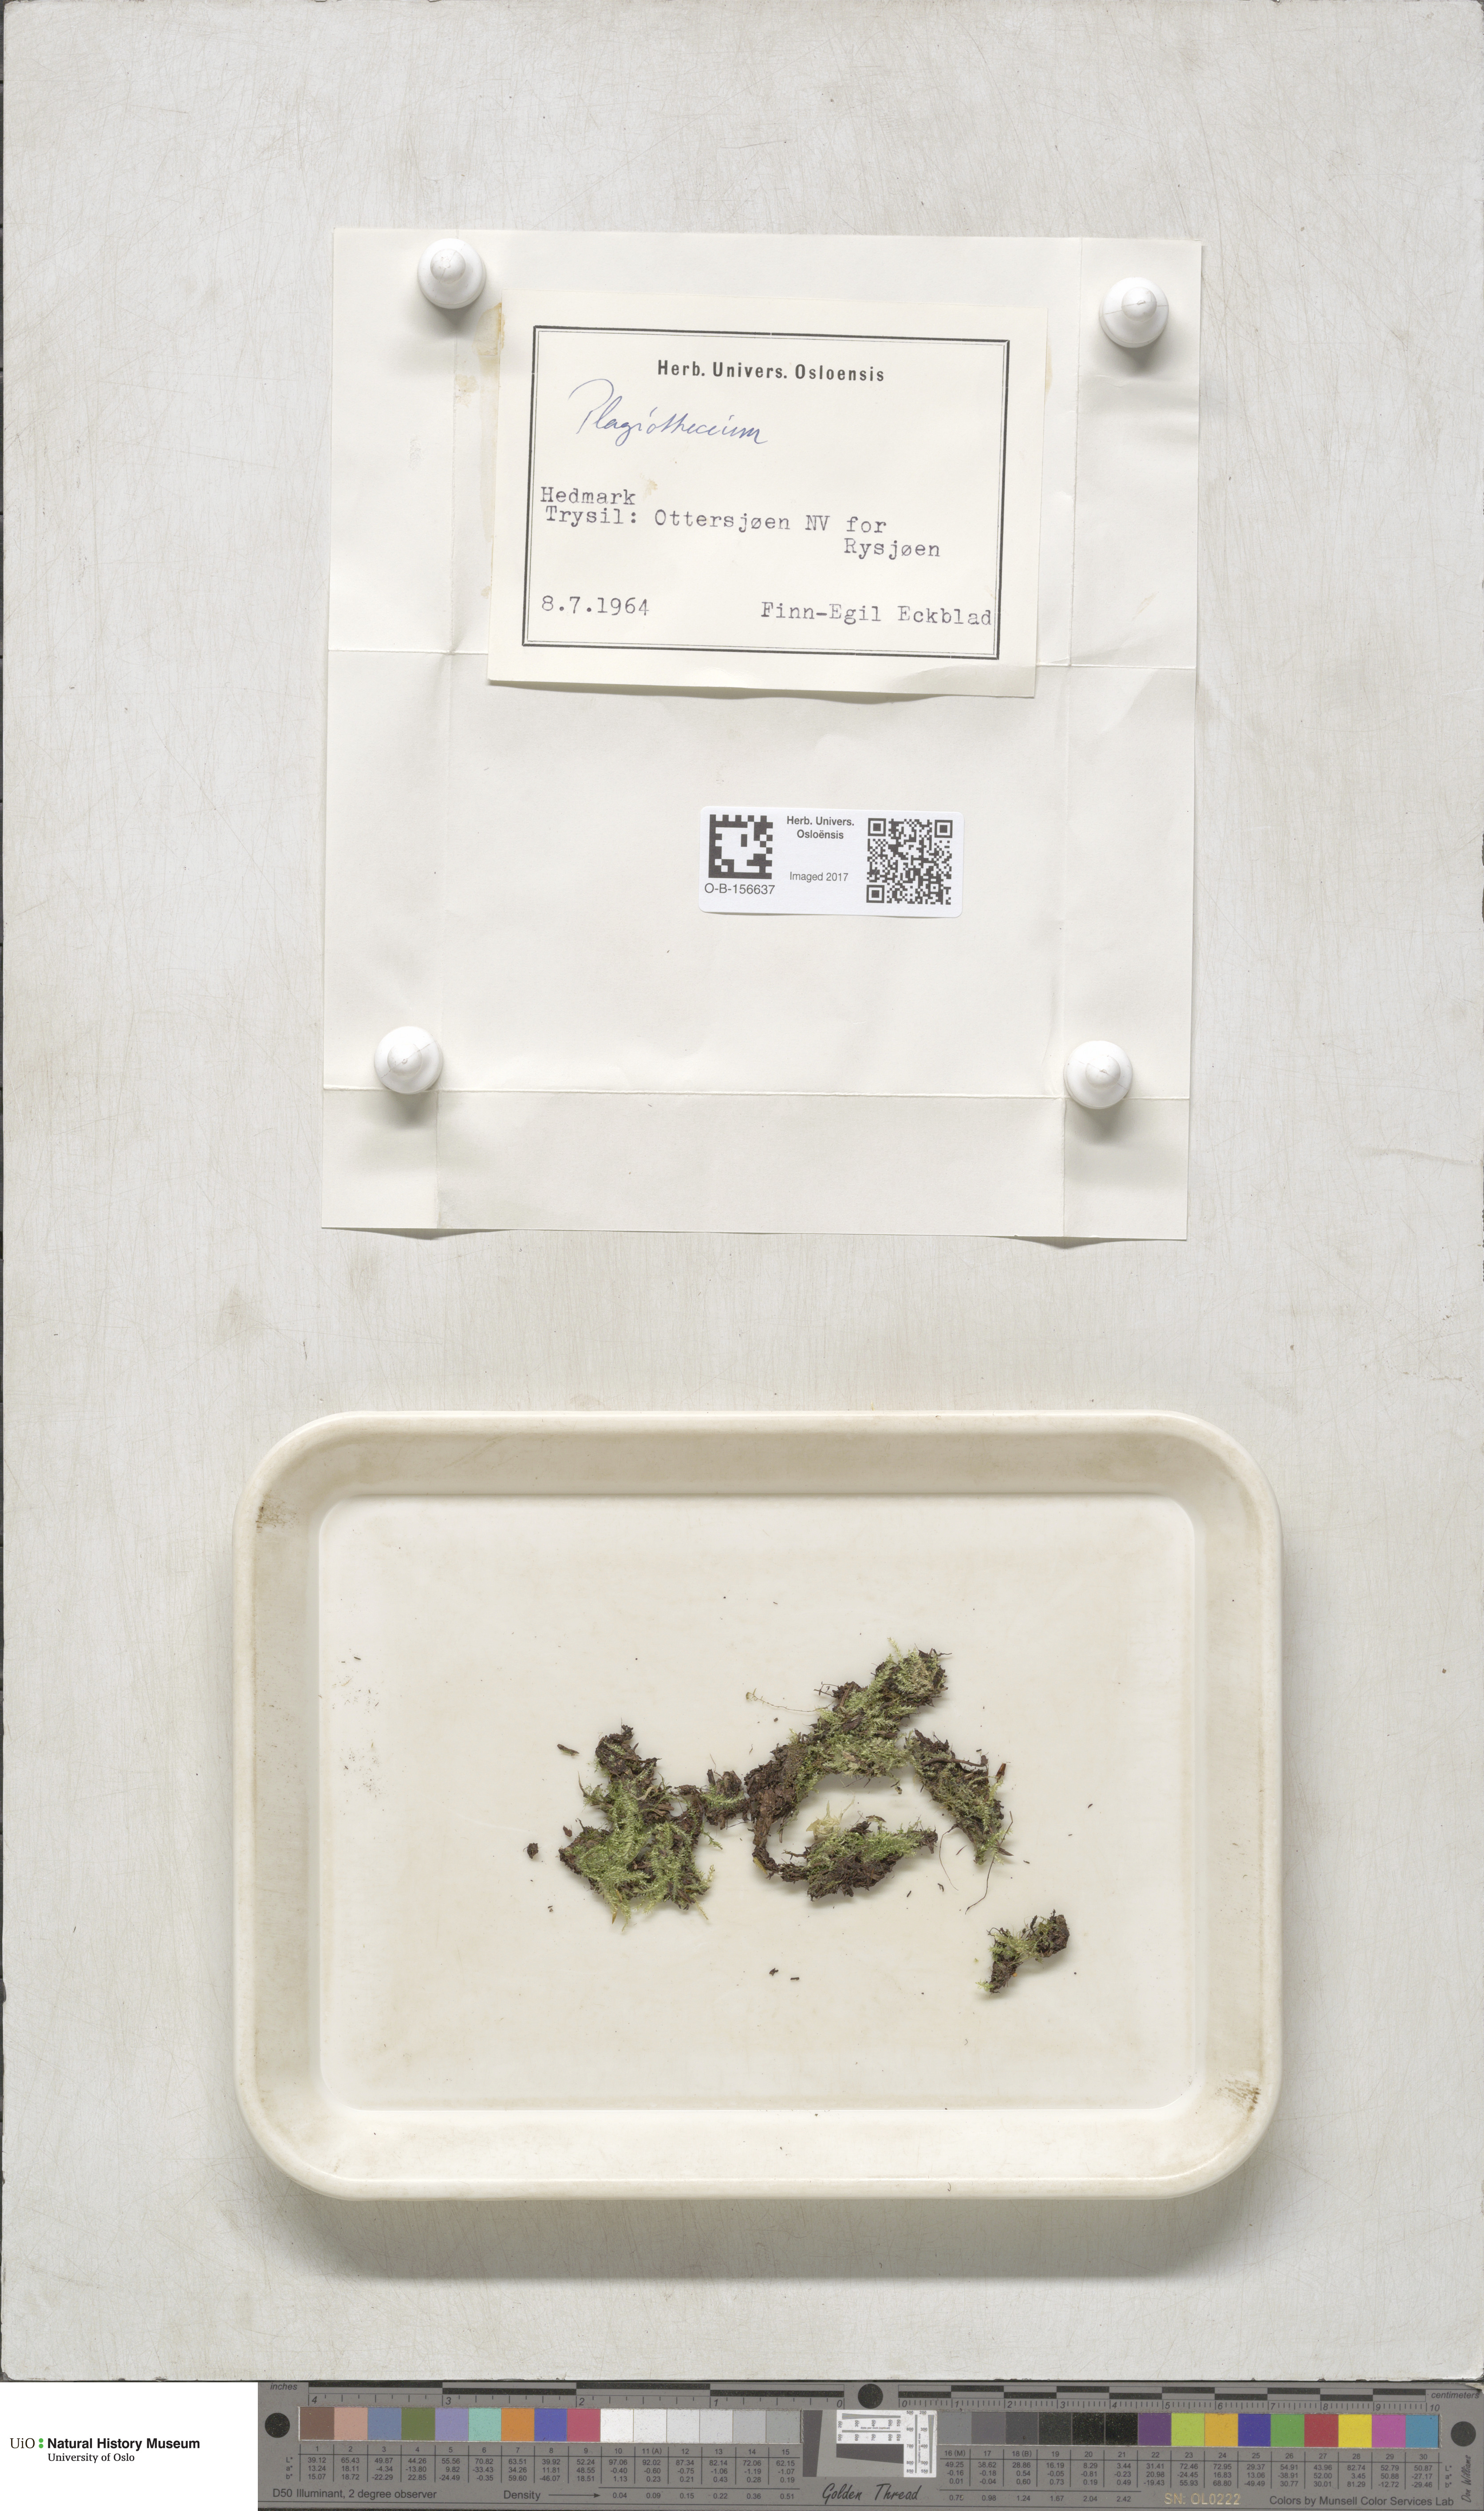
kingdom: Plantae
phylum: Bryophyta
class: Bryopsida
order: Hypnales
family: Plagiotheciaceae
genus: Plagiothecium
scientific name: Plagiothecium
